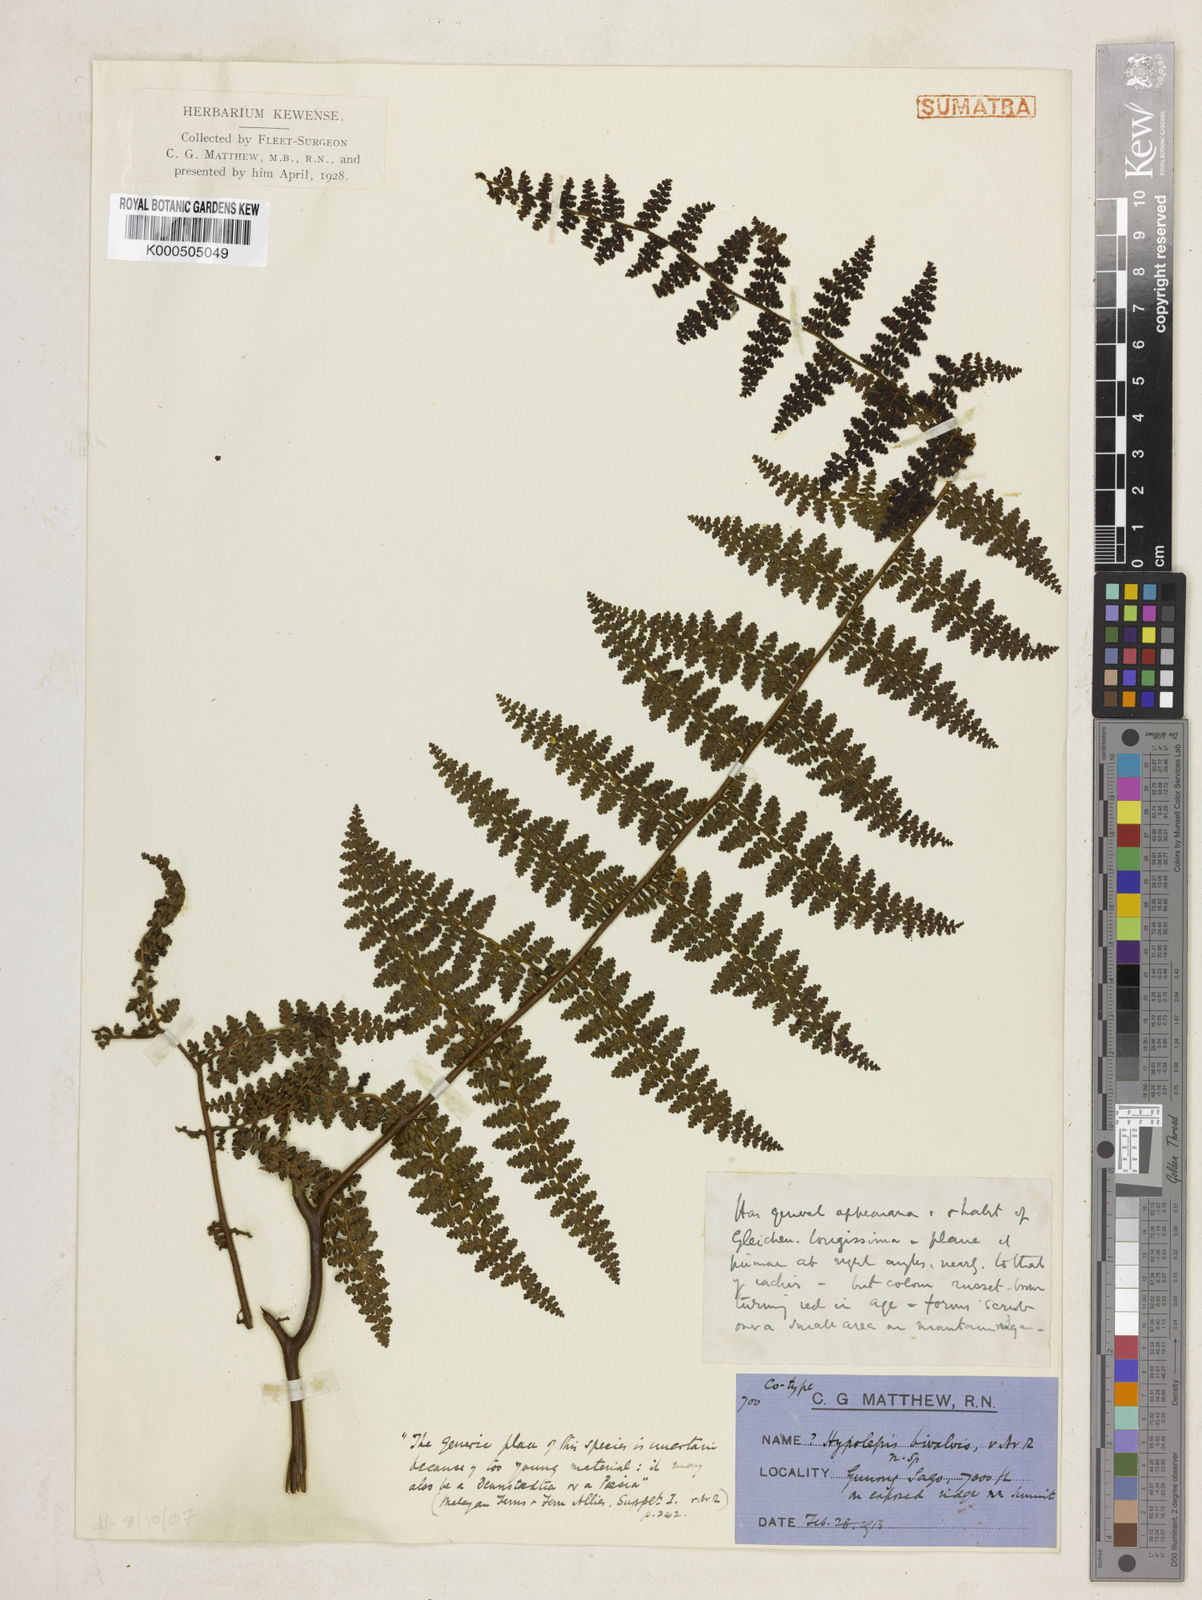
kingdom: Plantae
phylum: Tracheophyta
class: Polypodiopsida
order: Polypodiales
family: Dennstaedtiaceae
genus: Paesia
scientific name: Paesia elmeri
